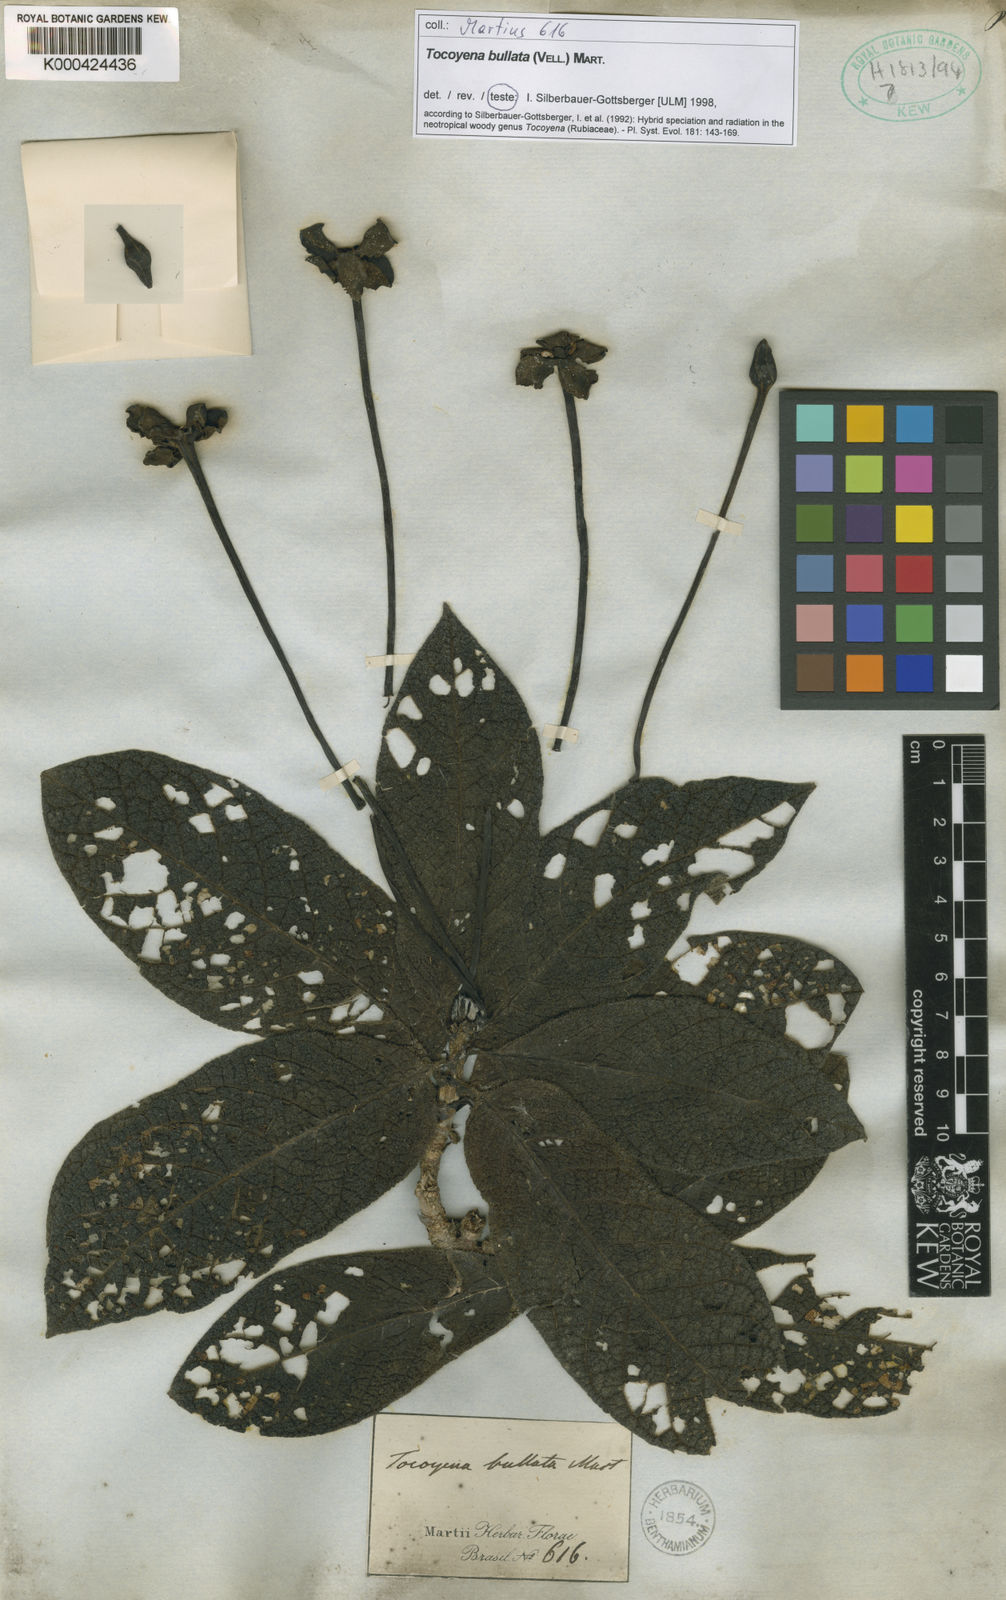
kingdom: Plantae
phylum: Tracheophyta
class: Magnoliopsida
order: Gentianales
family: Rubiaceae
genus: Tocoyena
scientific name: Tocoyena bullata
